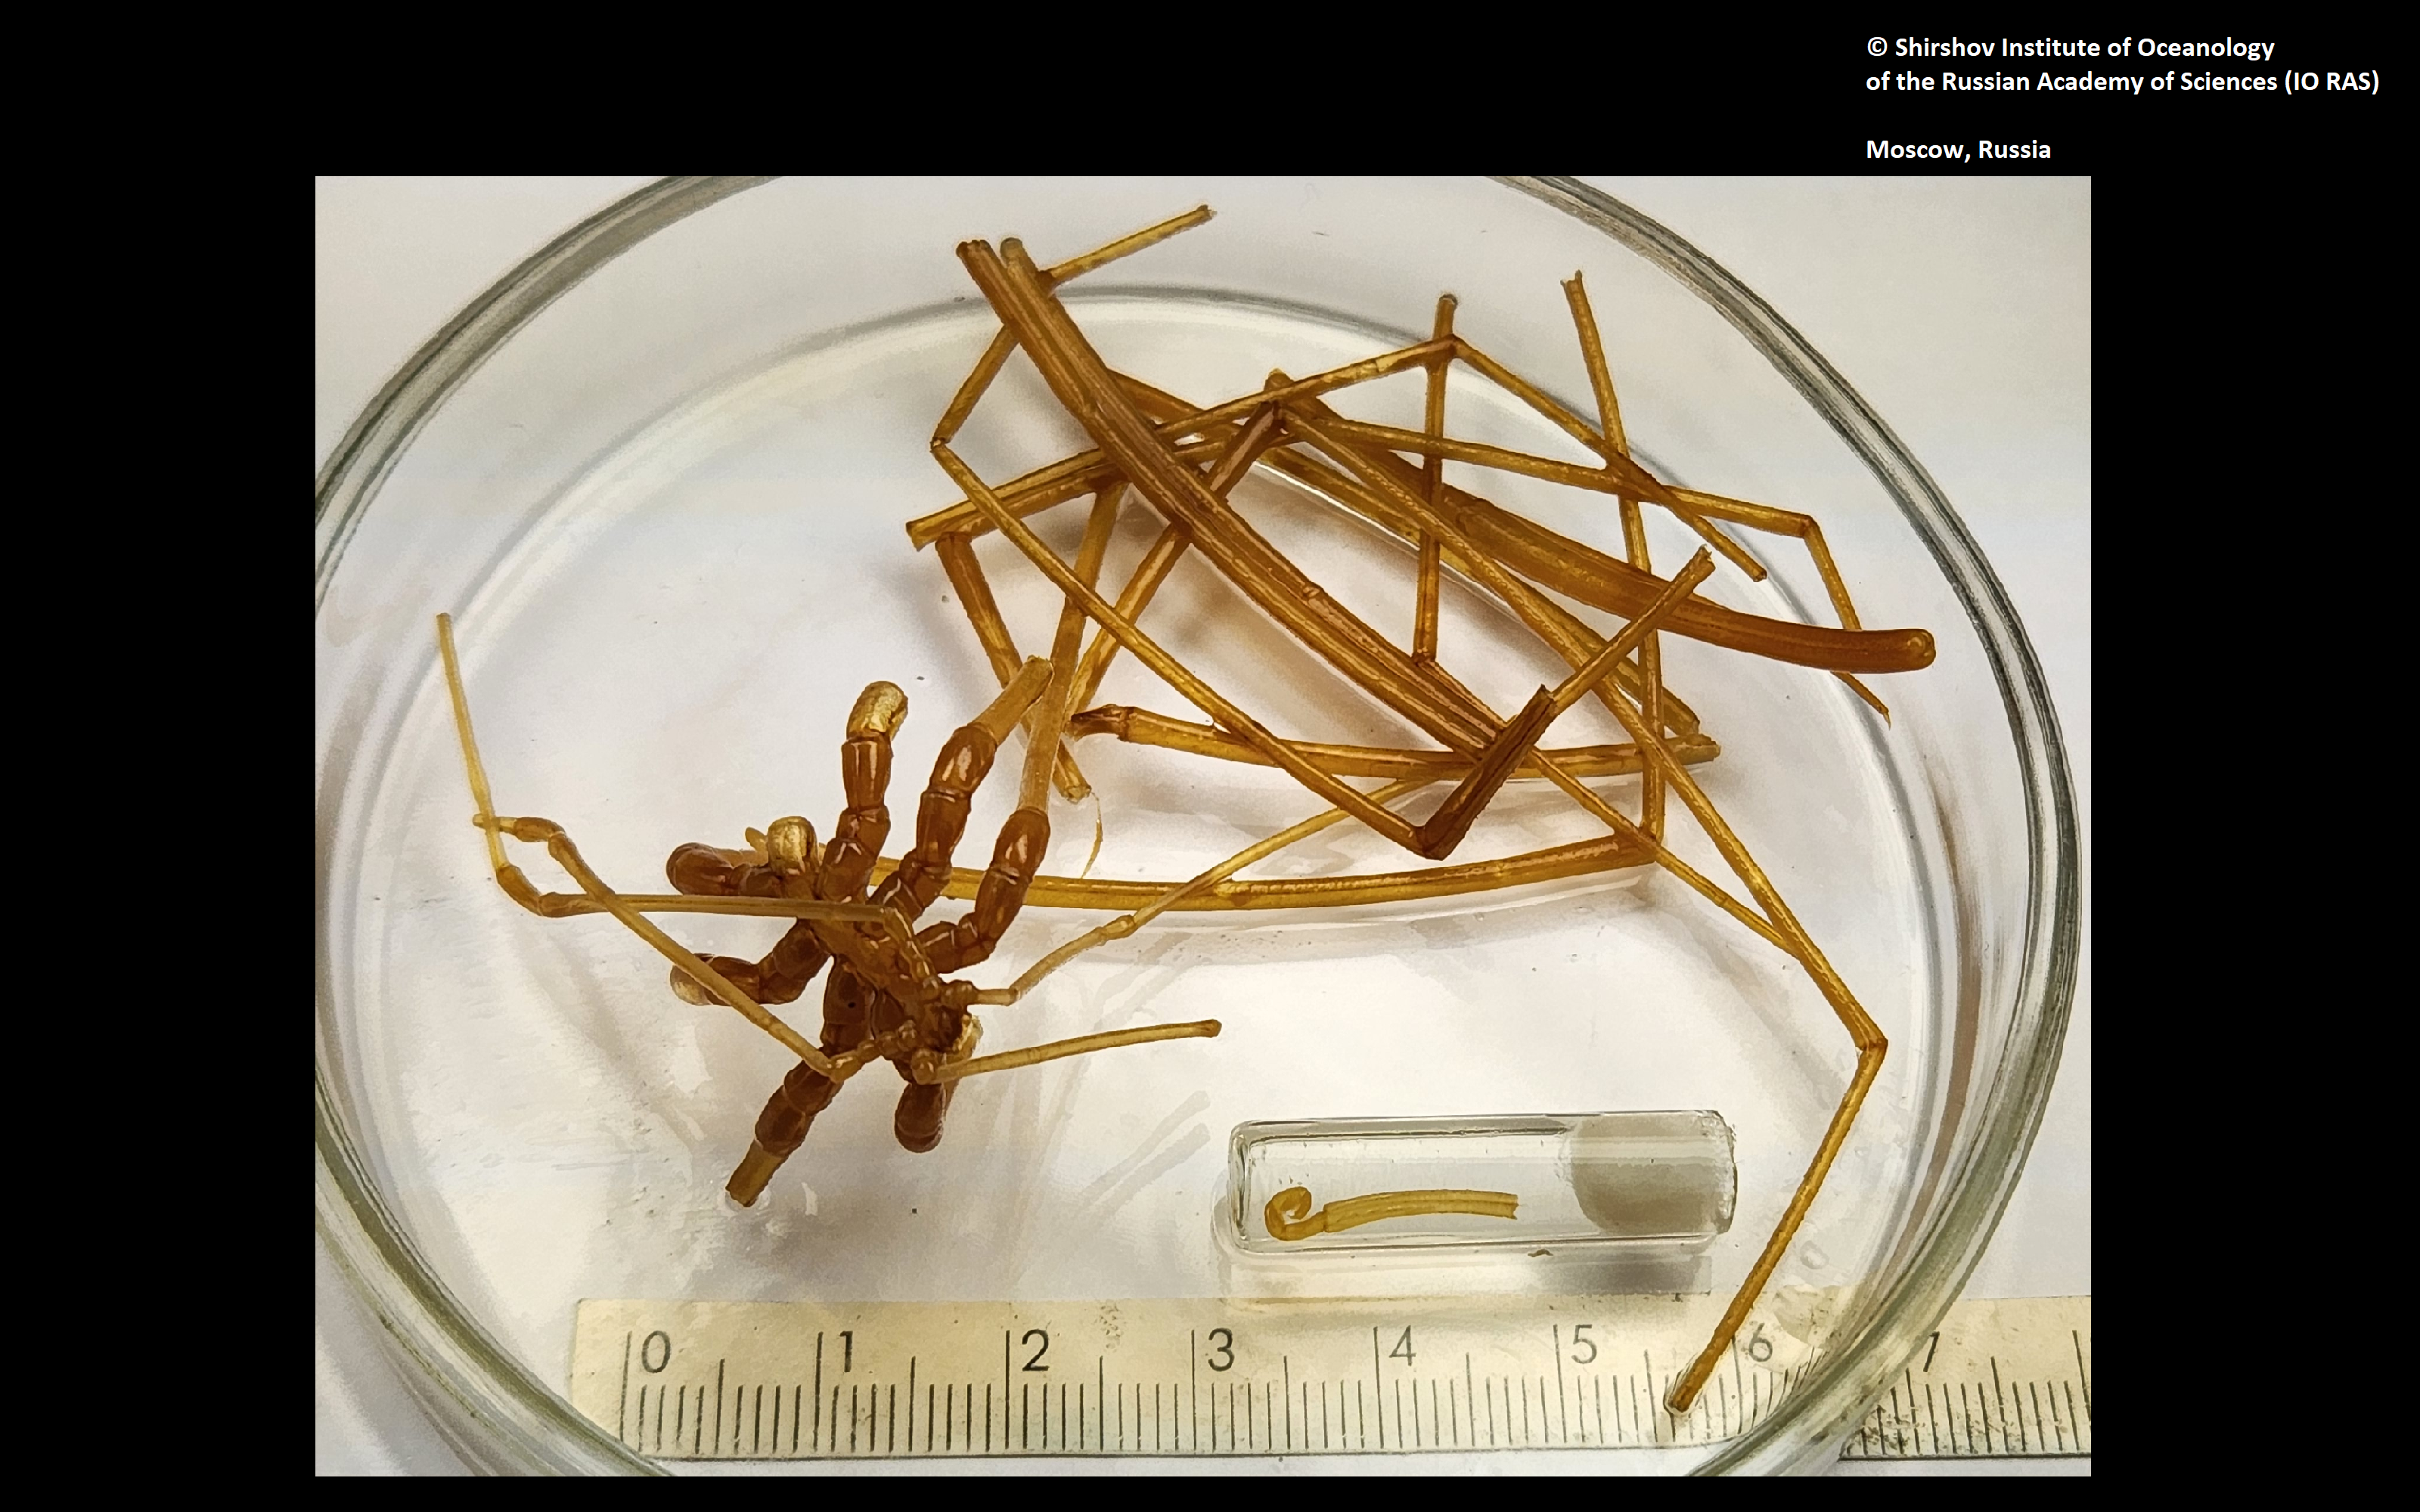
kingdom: Animalia
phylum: Arthropoda
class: Pycnogonida
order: Pantopoda
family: Colossendeidae
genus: Colossendeis
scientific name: Colossendeis rostrata
